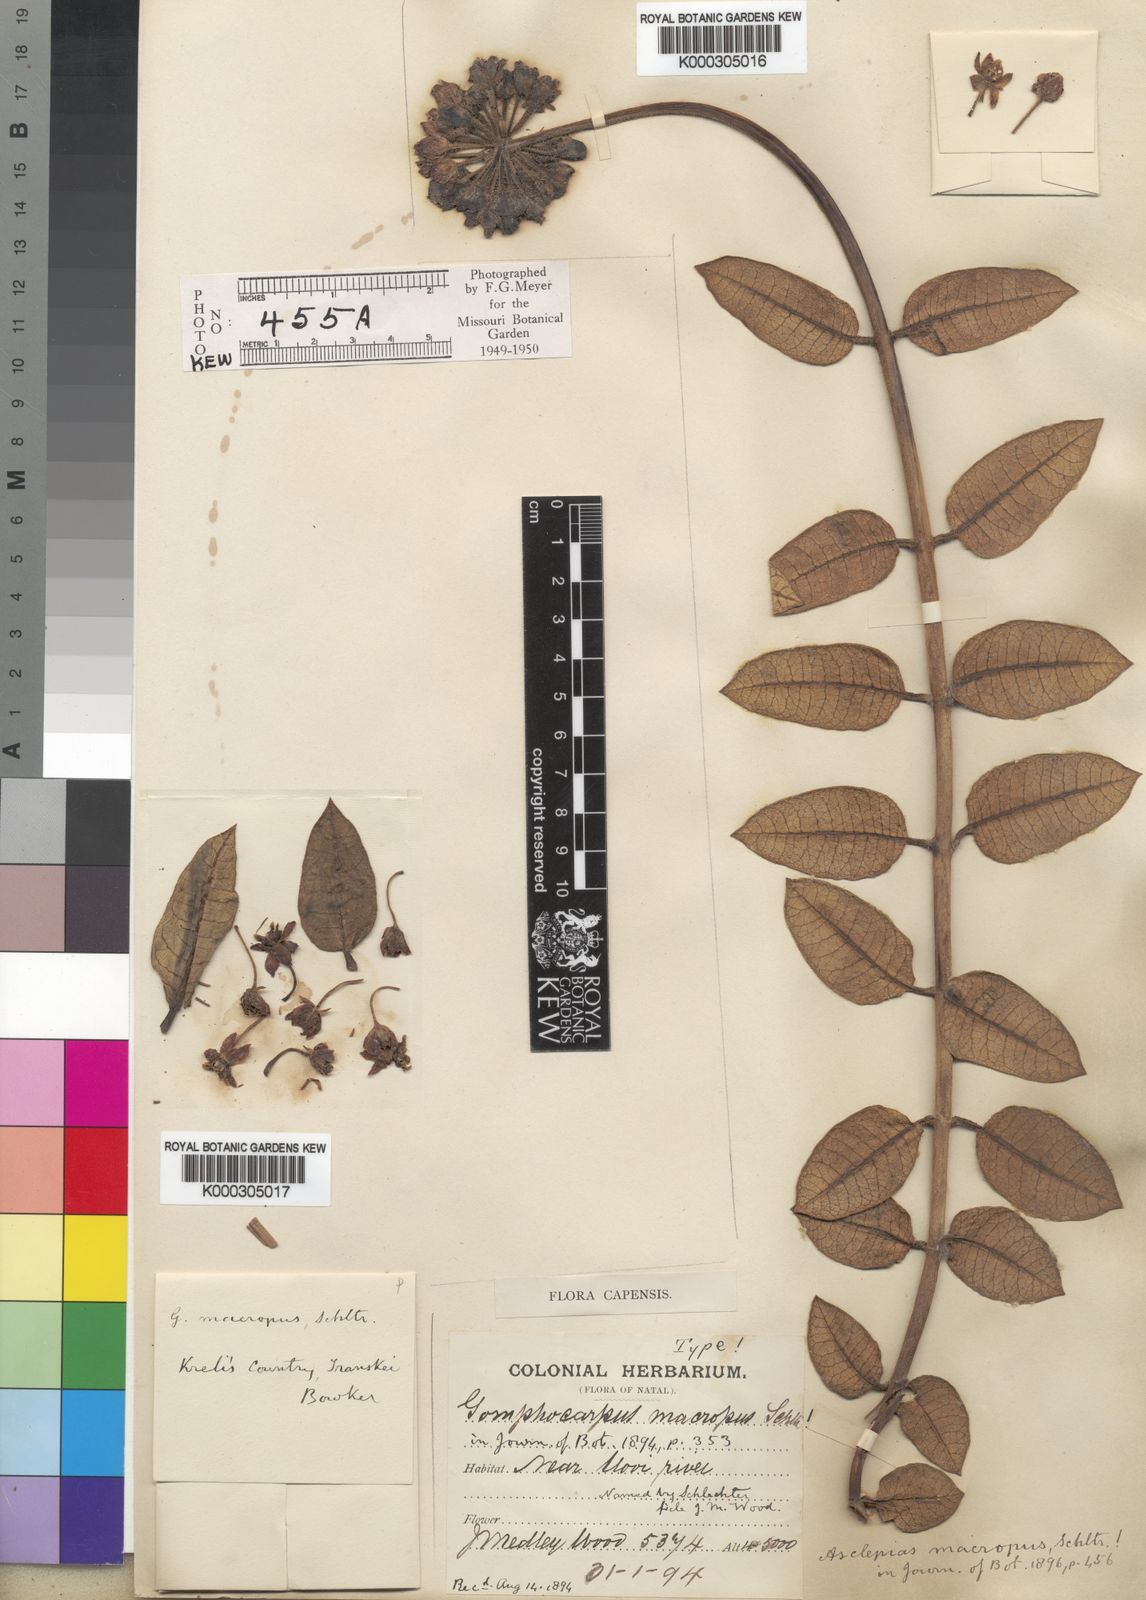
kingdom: Plantae
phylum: Tracheophyta
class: Magnoliopsida
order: Gentianales
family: Apocynaceae
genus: Asclepias
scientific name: Asclepias macropus
